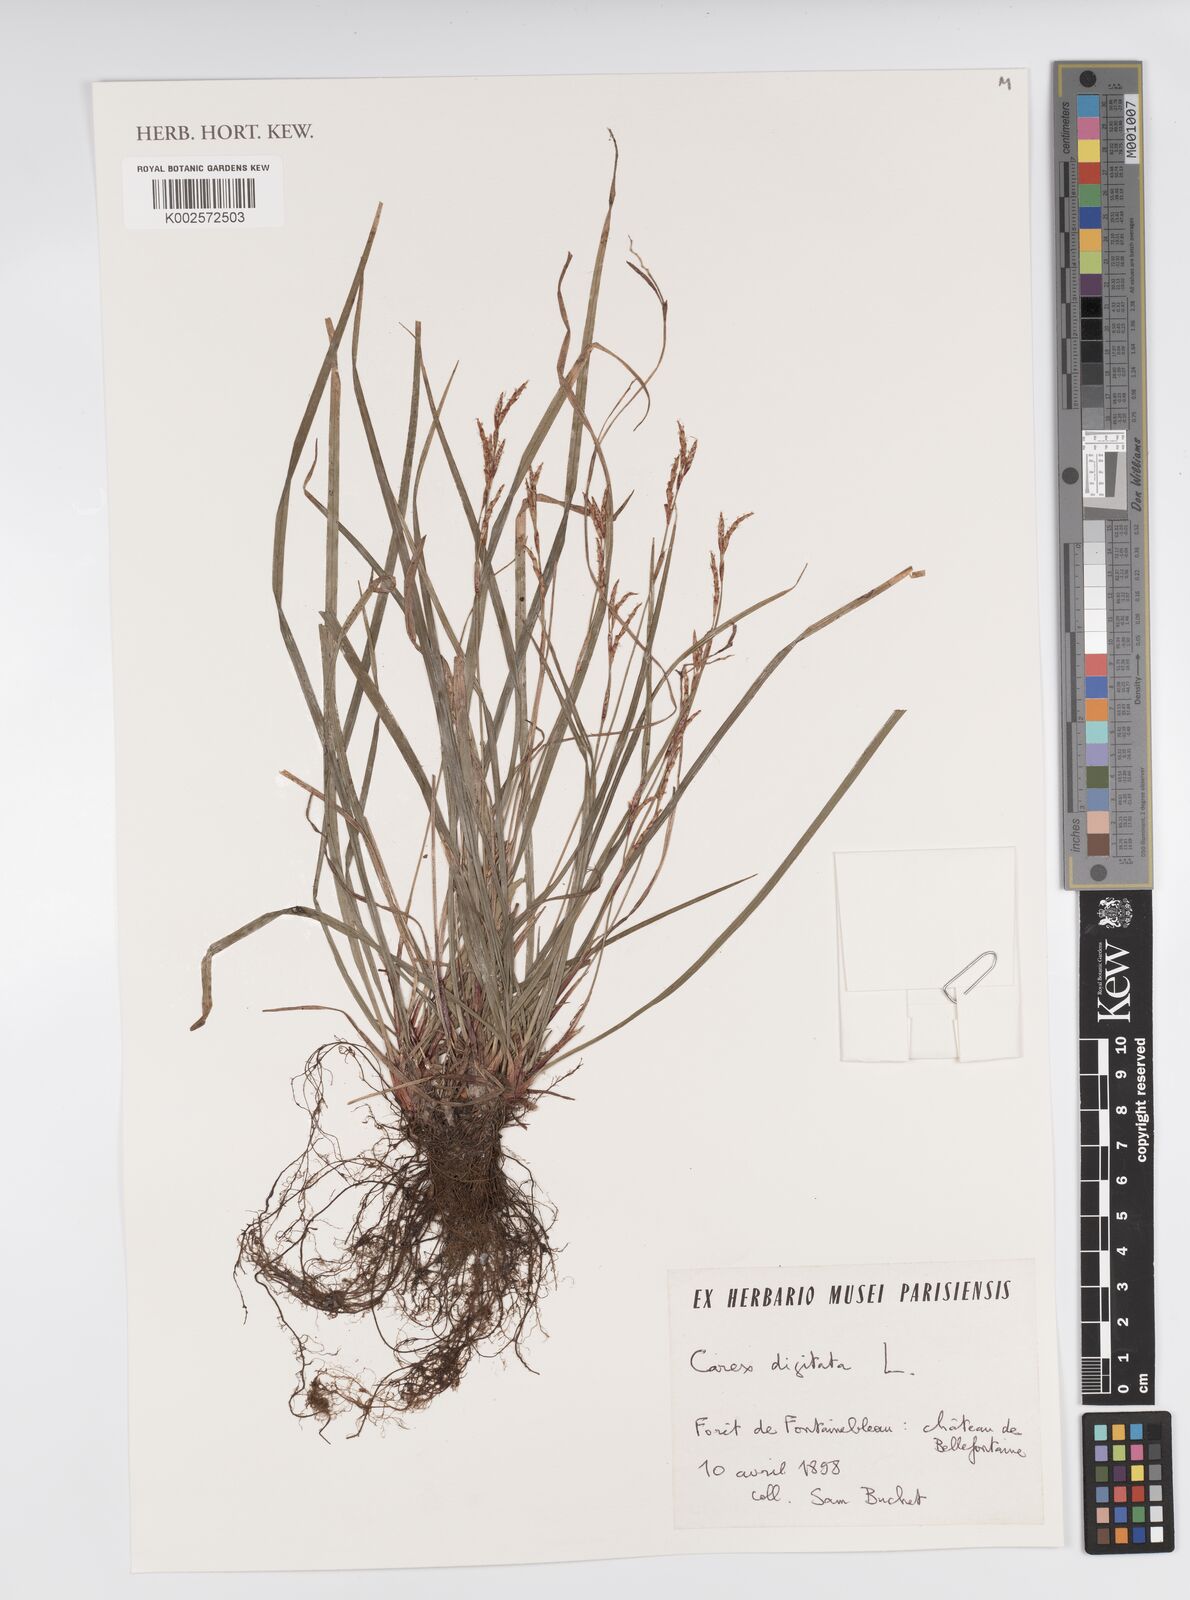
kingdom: Plantae
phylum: Tracheophyta
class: Liliopsida
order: Poales
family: Cyperaceae
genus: Carex
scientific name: Carex digitata
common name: Fingered sedge
